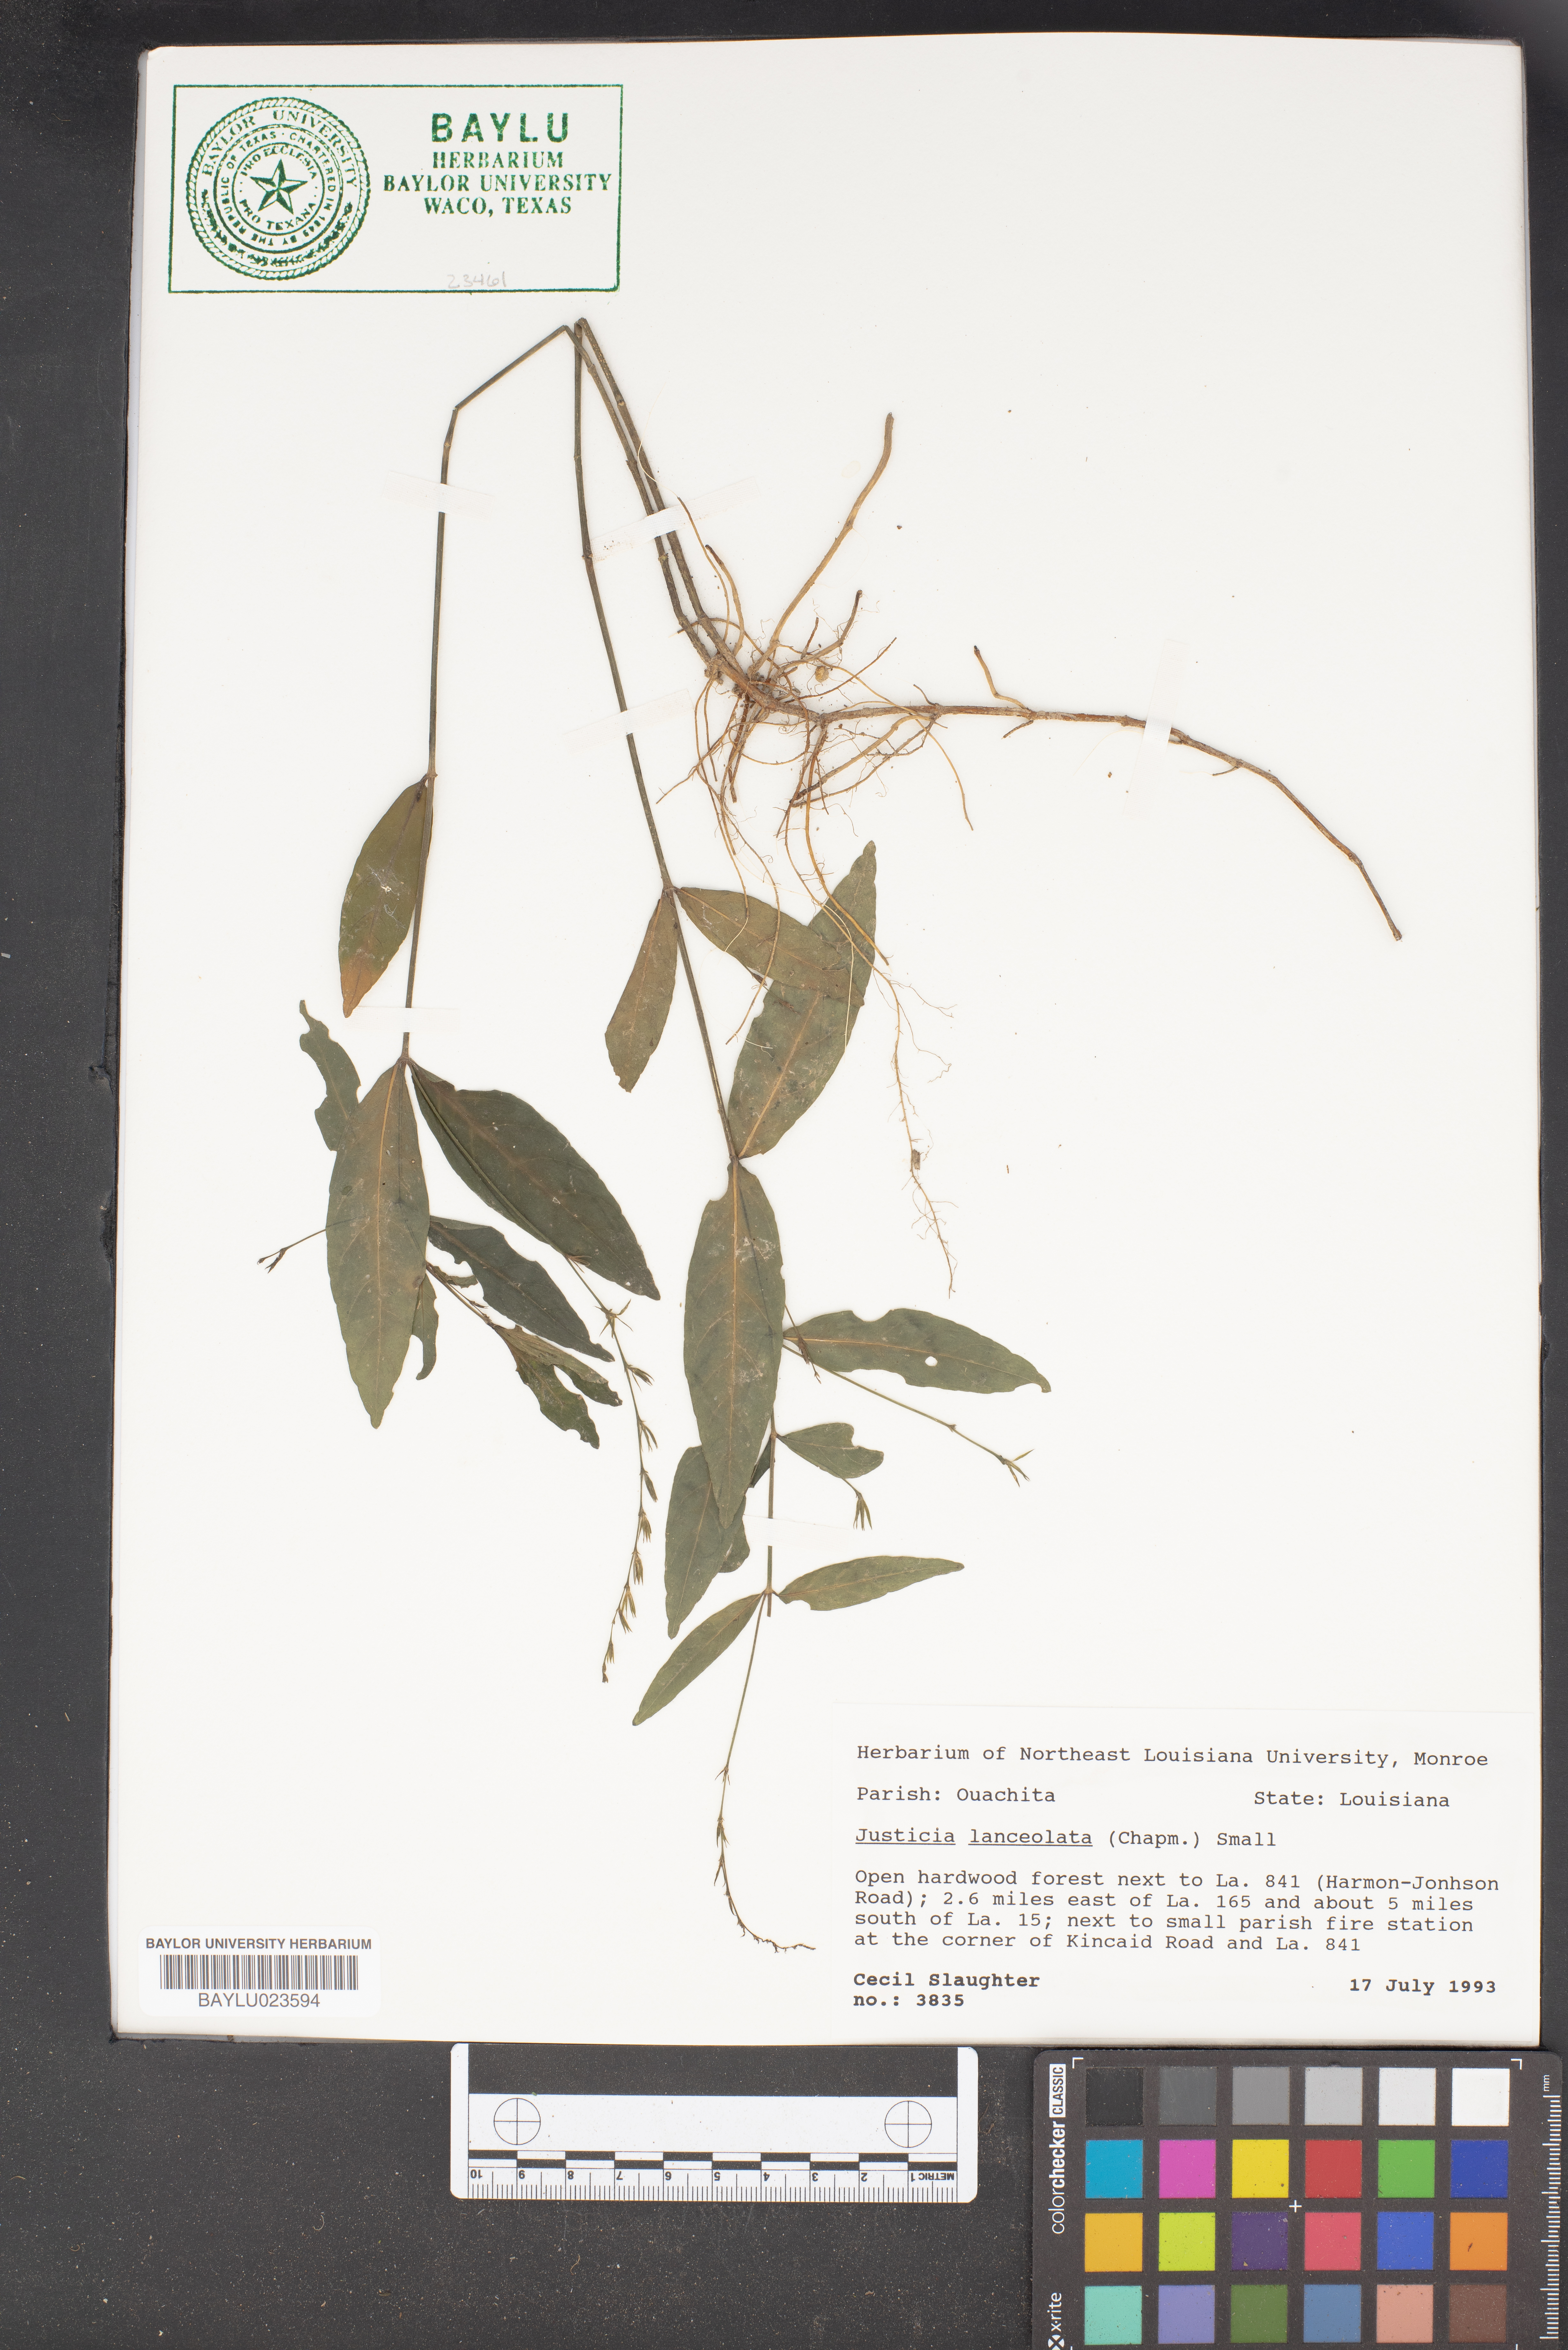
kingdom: Plantae
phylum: Tracheophyta
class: Magnoliopsida
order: Lamiales
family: Acanthaceae
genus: Justicia
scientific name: Justicia lanceolata
